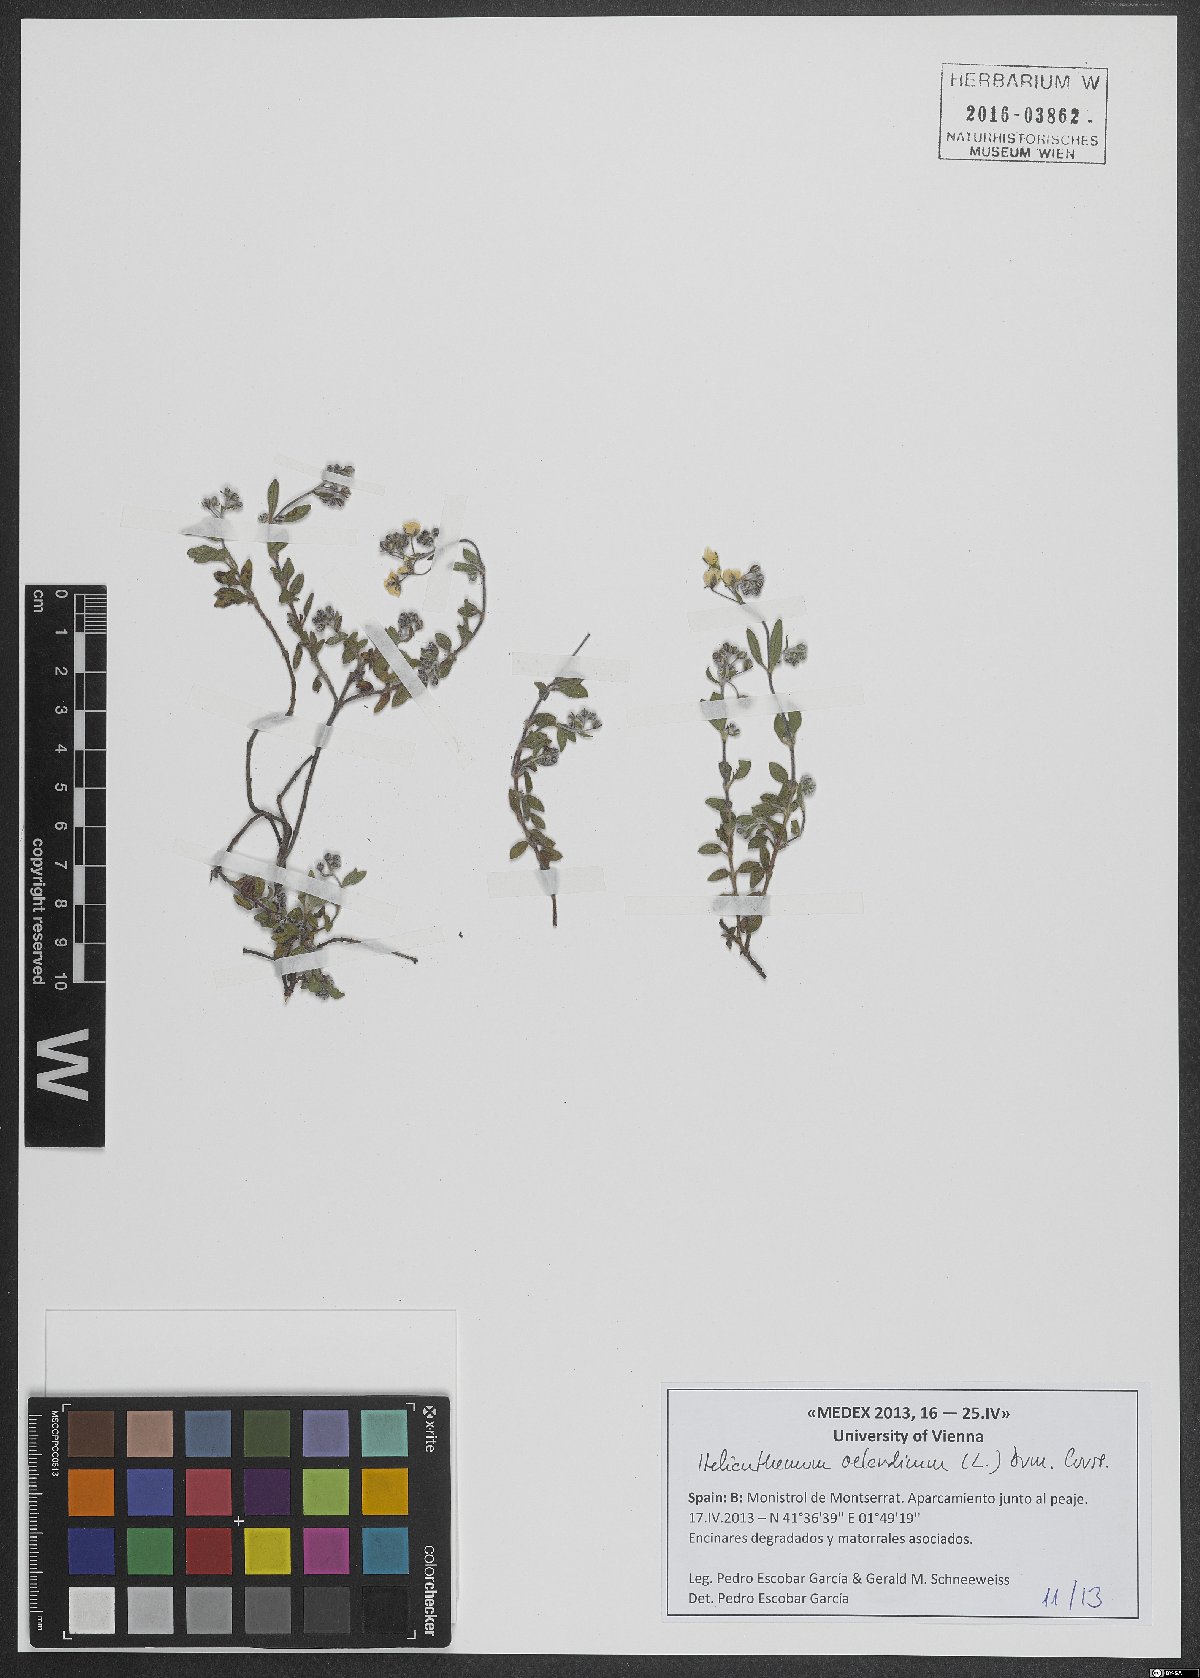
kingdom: Plantae
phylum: Tracheophyta
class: Magnoliopsida
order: Malvales
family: Cistaceae
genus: Helianthemum
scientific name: Helianthemum oelandicum
